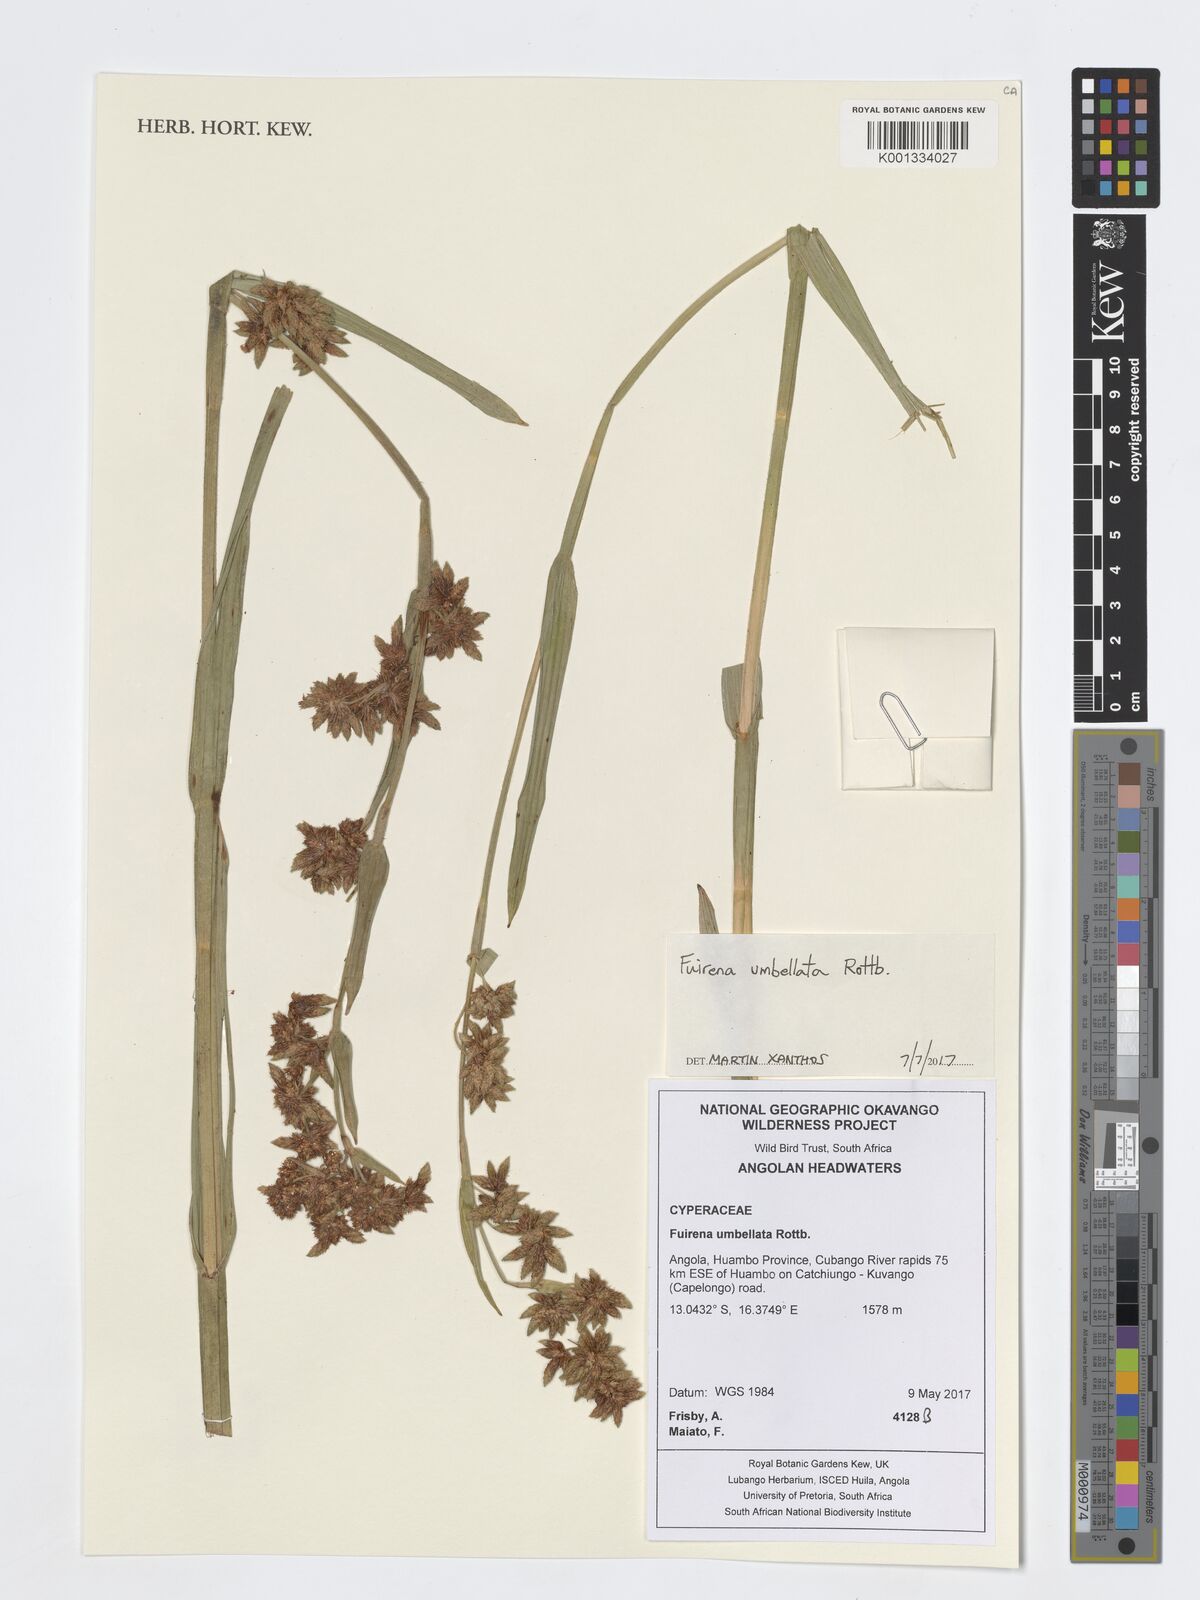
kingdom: Plantae
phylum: Tracheophyta
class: Liliopsida
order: Poales
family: Cyperaceae
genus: Fuirena
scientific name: Fuirena umbellata
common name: Yefen
